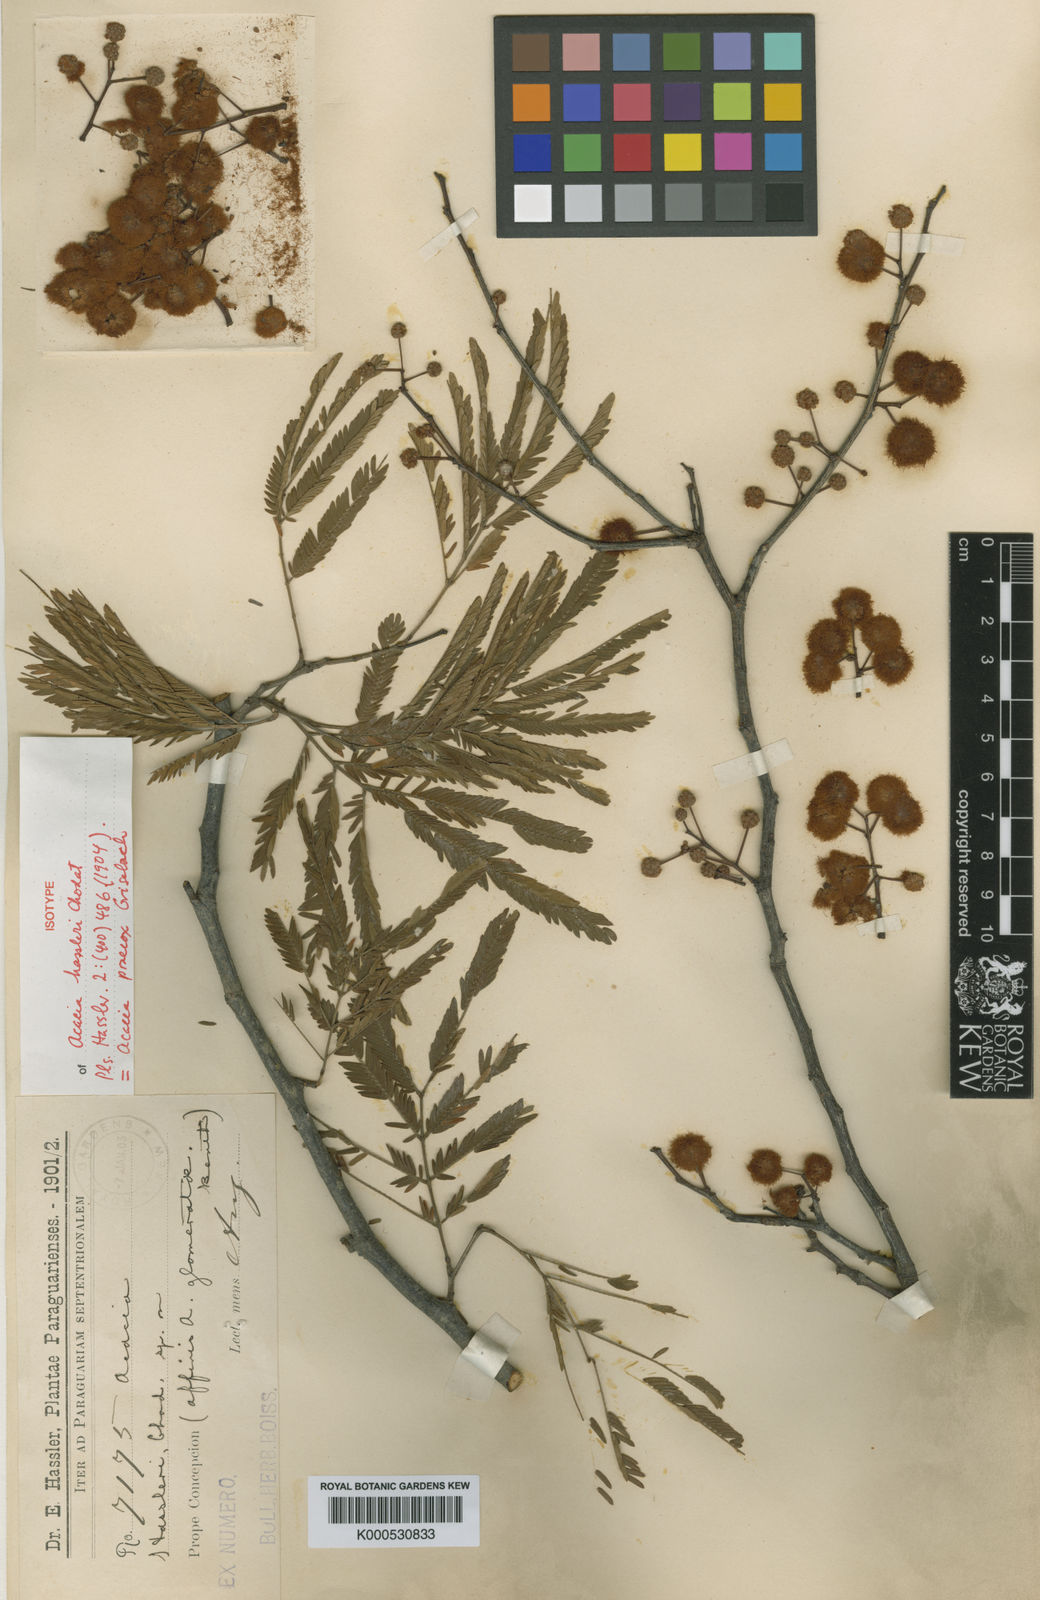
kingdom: Plantae
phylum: Tracheophyta
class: Magnoliopsida
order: Fabales
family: Fabaceae
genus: Senegalia
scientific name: Senegalia praecox
